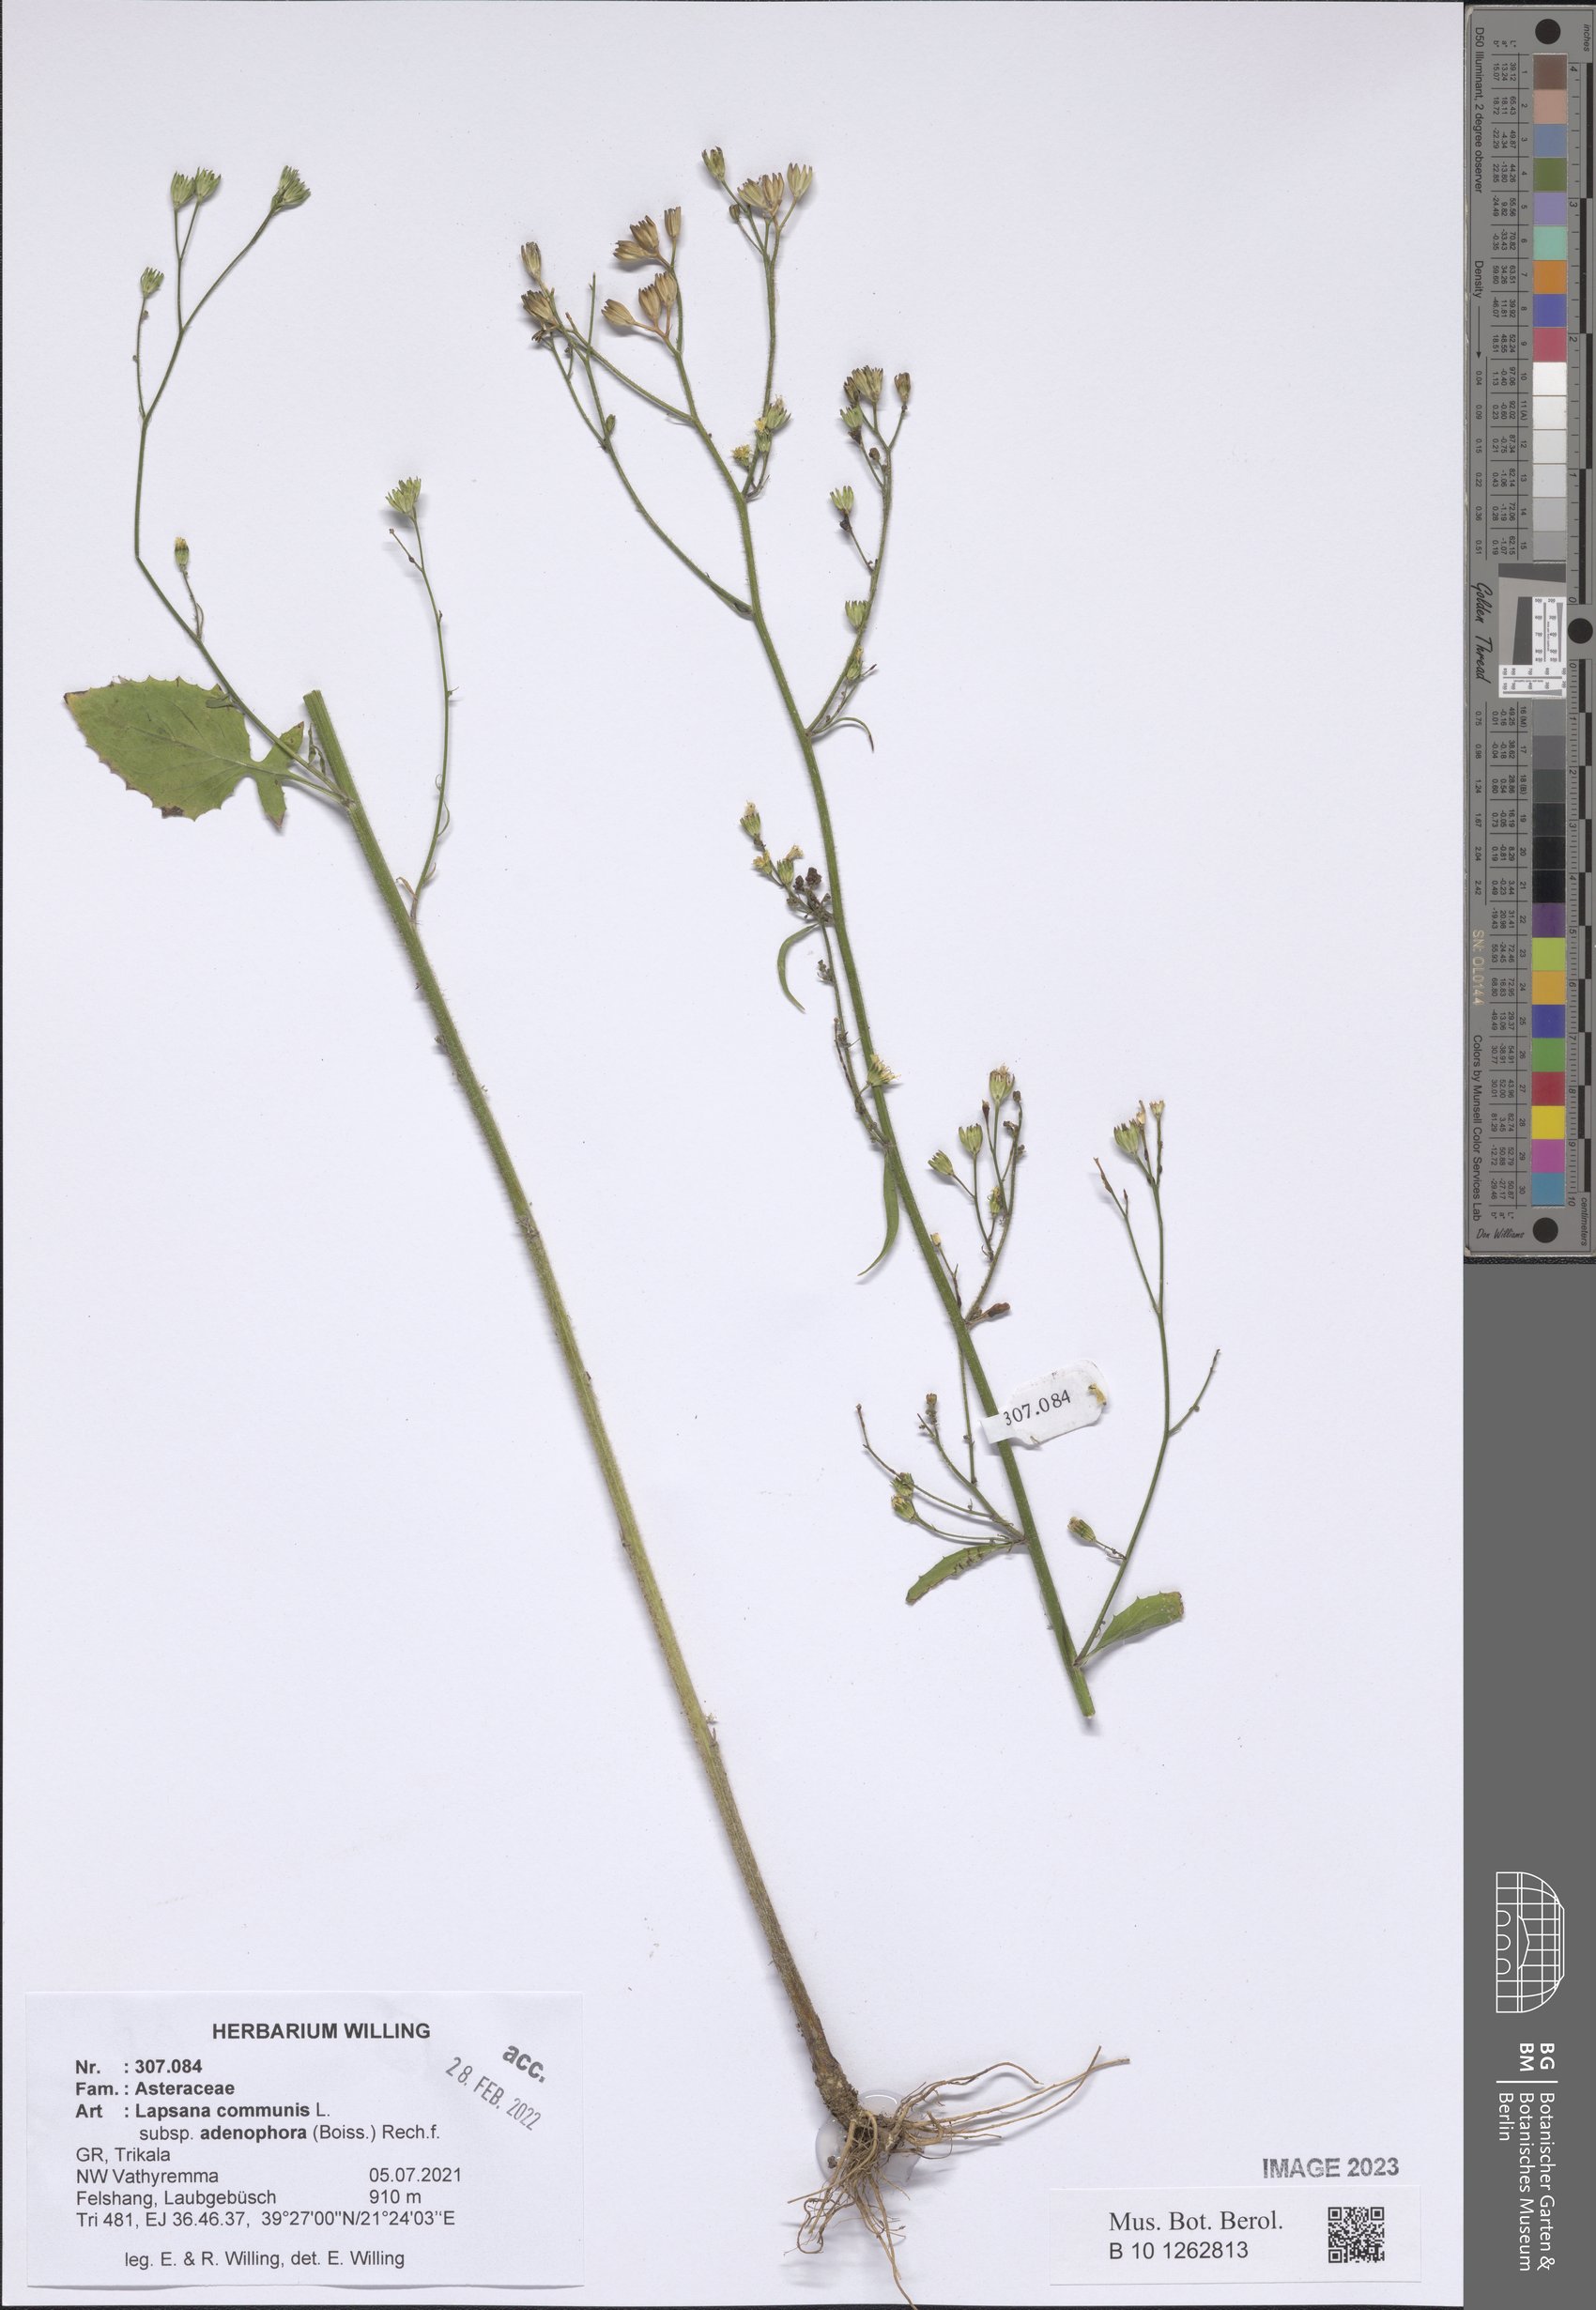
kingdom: Plantae
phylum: Tracheophyta
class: Magnoliopsida
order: Asterales
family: Asteraceae
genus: Lapsana
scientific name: Lapsana communis
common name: Nipplewort
